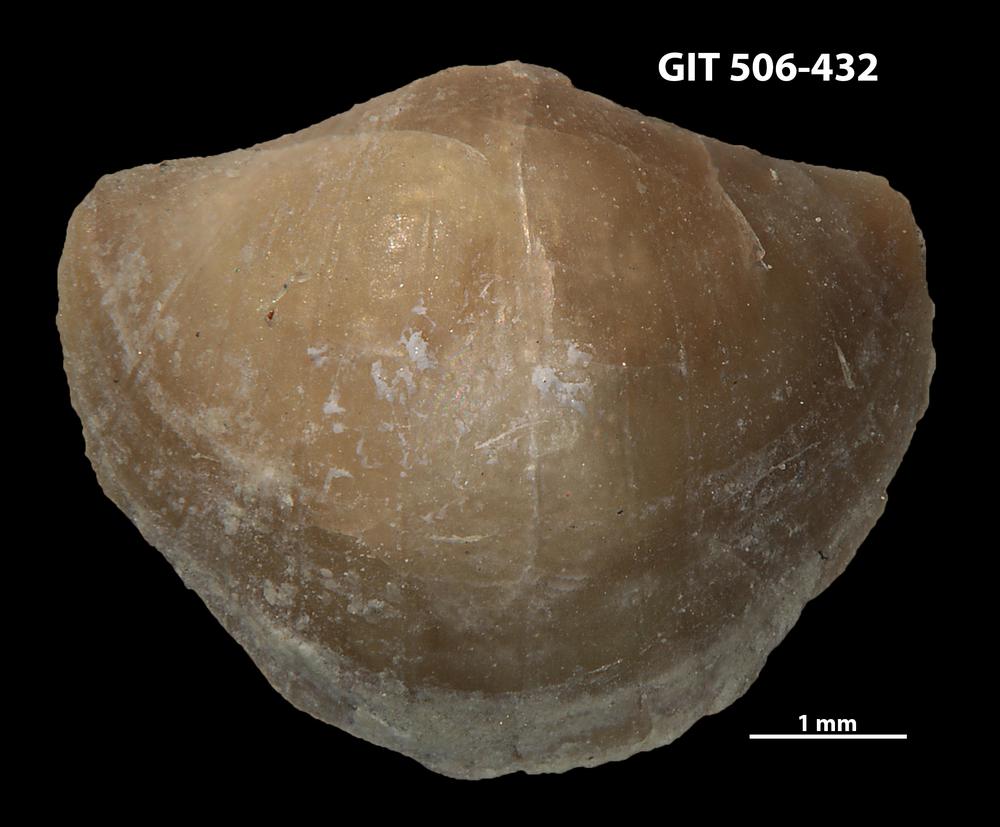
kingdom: Animalia
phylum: Brachiopoda
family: Leptellinidae
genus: Leangella
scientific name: Leangella Plectambonites scissa
